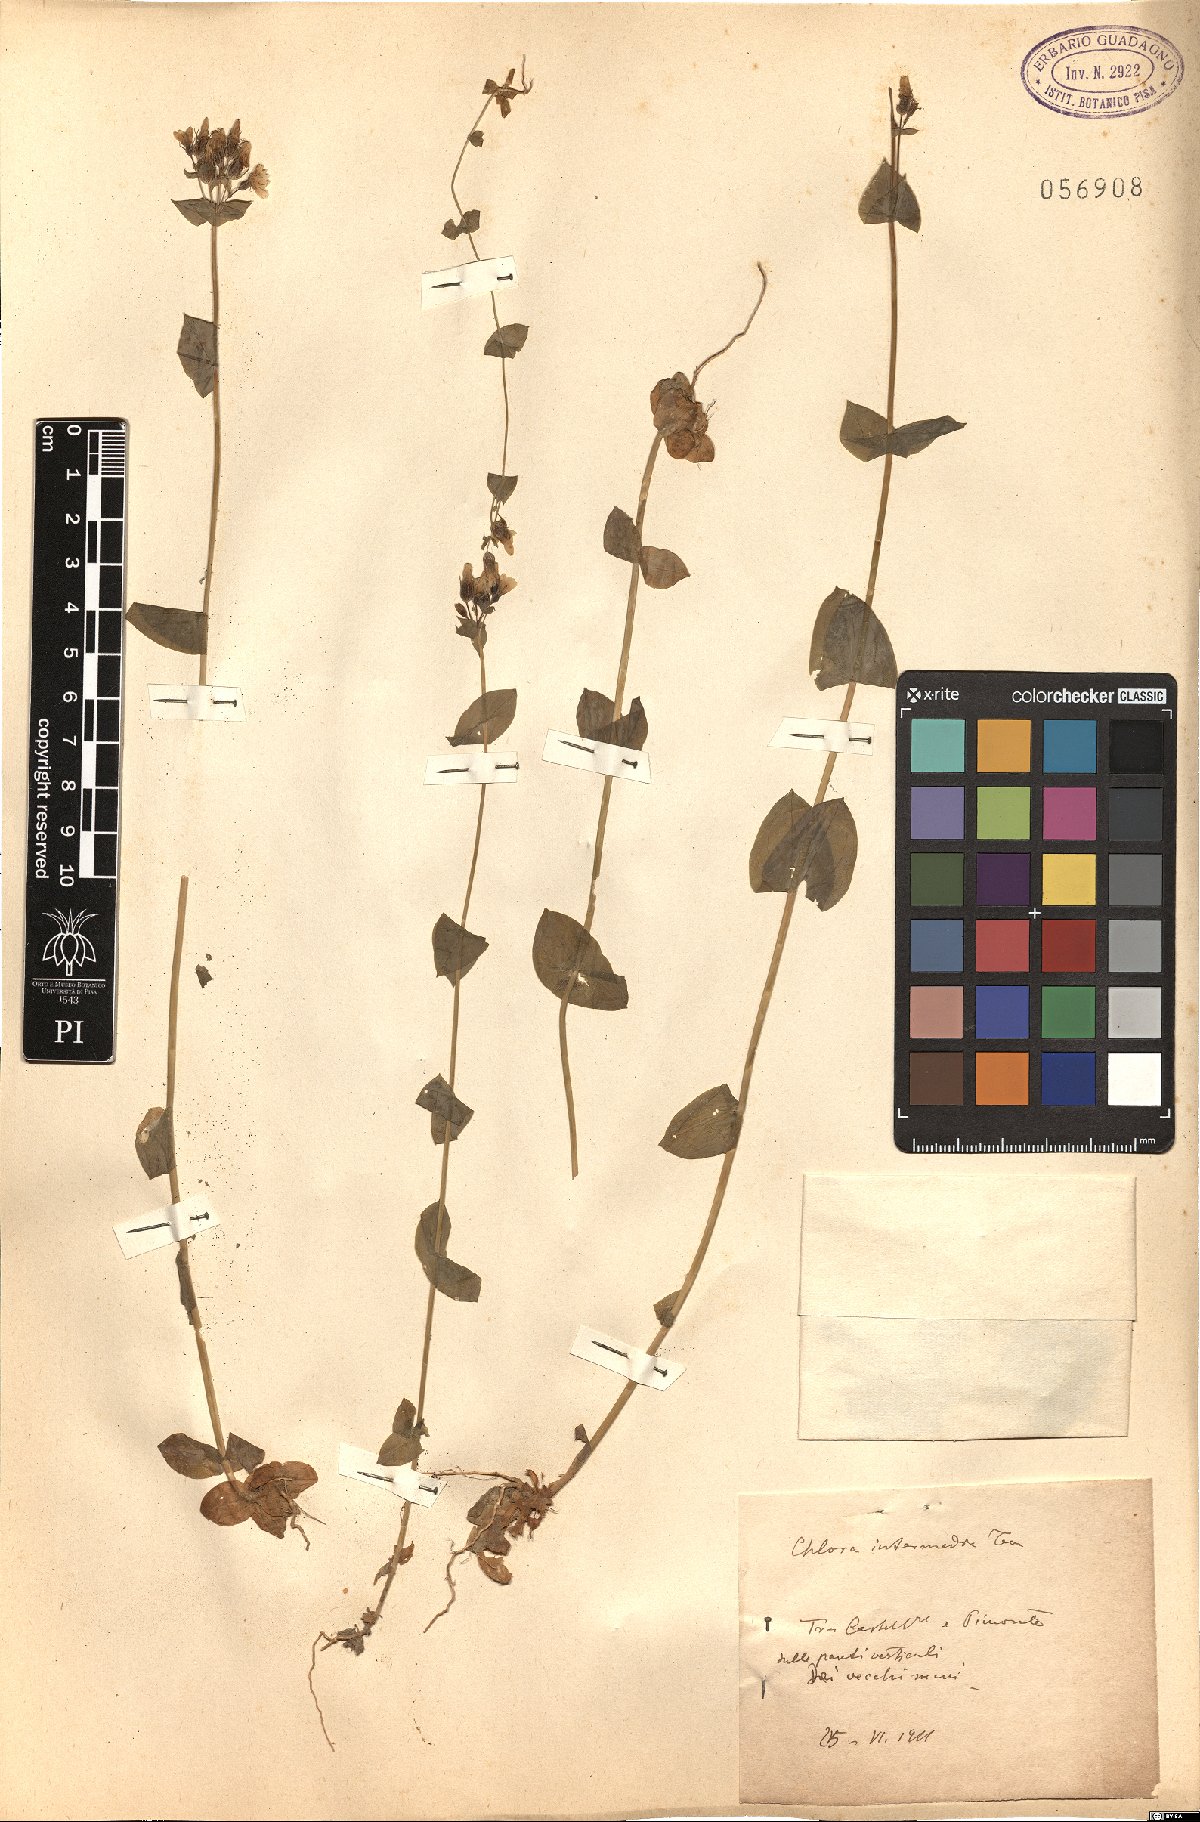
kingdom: Plantae
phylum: Tracheophyta
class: Magnoliopsida
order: Gentianales
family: Gentianaceae
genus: Blackstonia
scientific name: Blackstonia perfoliata
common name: Yellow-wort
